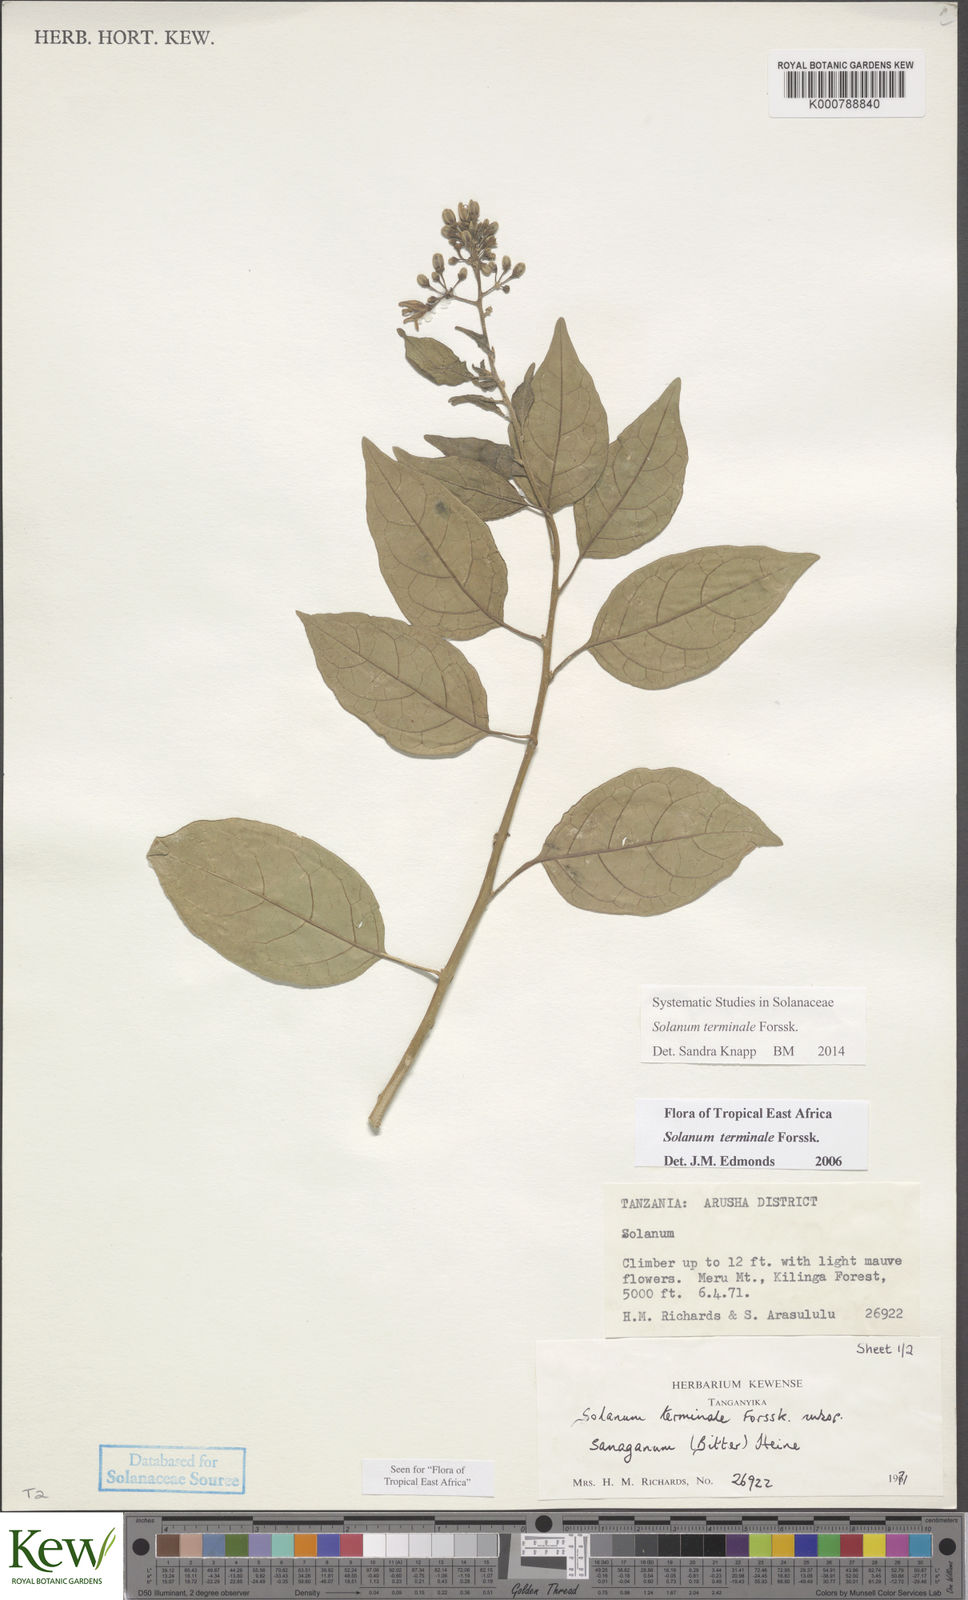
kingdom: Plantae
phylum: Tracheophyta
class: Magnoliopsida
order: Solanales
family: Solanaceae
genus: Solanum
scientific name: Solanum terminale
